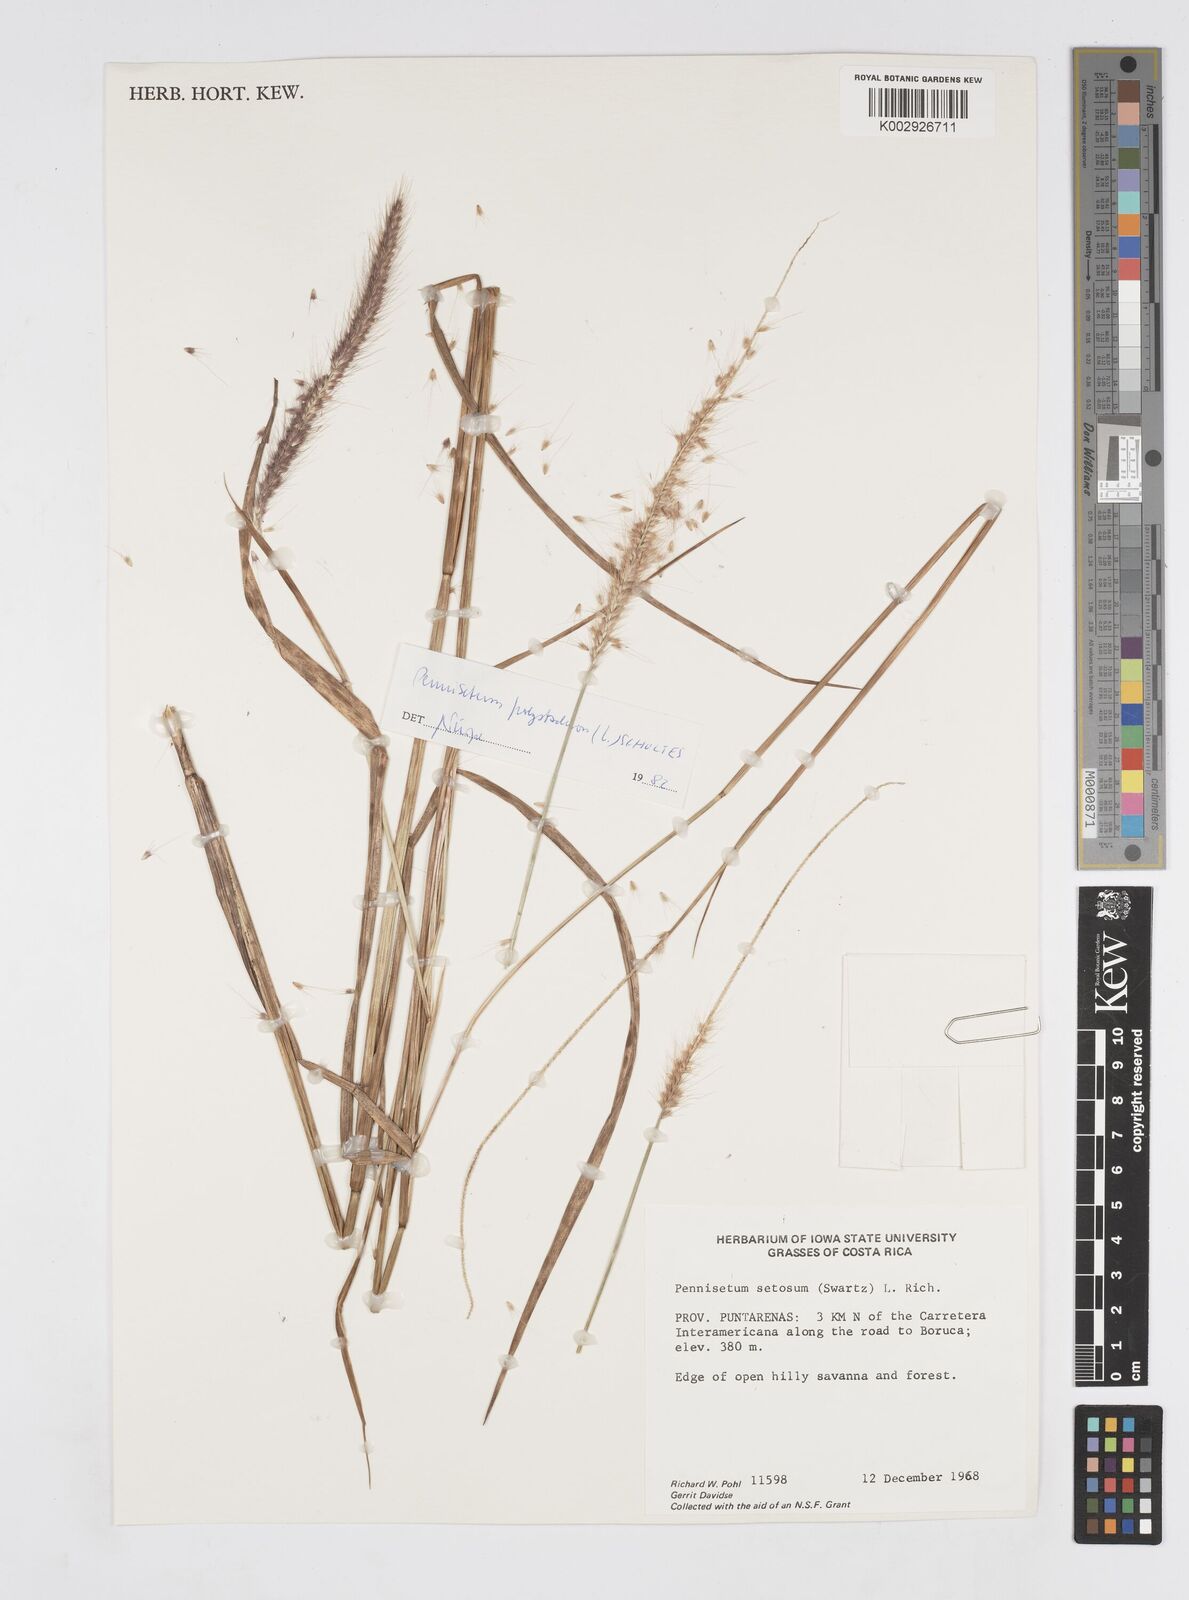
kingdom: Plantae
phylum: Tracheophyta
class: Liliopsida
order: Poales
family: Poaceae
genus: Cenchrus
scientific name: Cenchrus setosus
